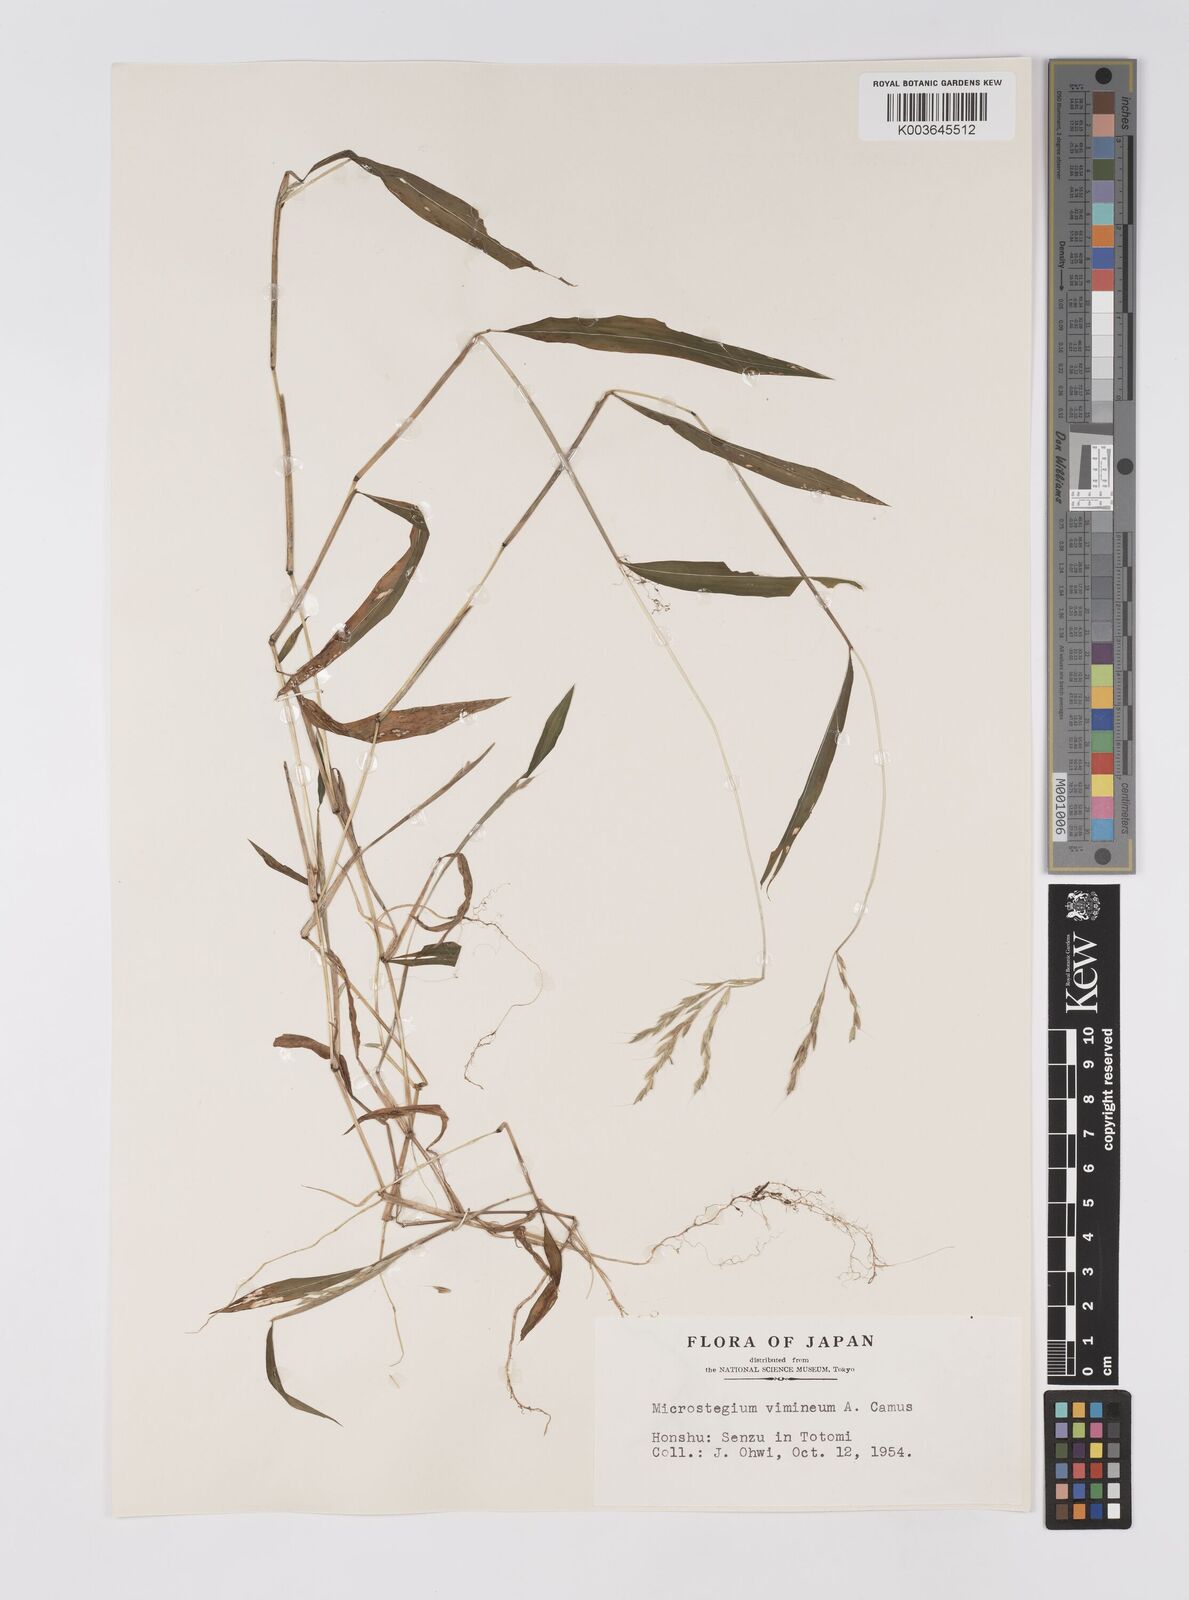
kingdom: Plantae
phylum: Tracheophyta
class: Liliopsida
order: Poales
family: Poaceae
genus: Microstegium
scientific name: Microstegium vimineum
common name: Japanese stiltgrass
